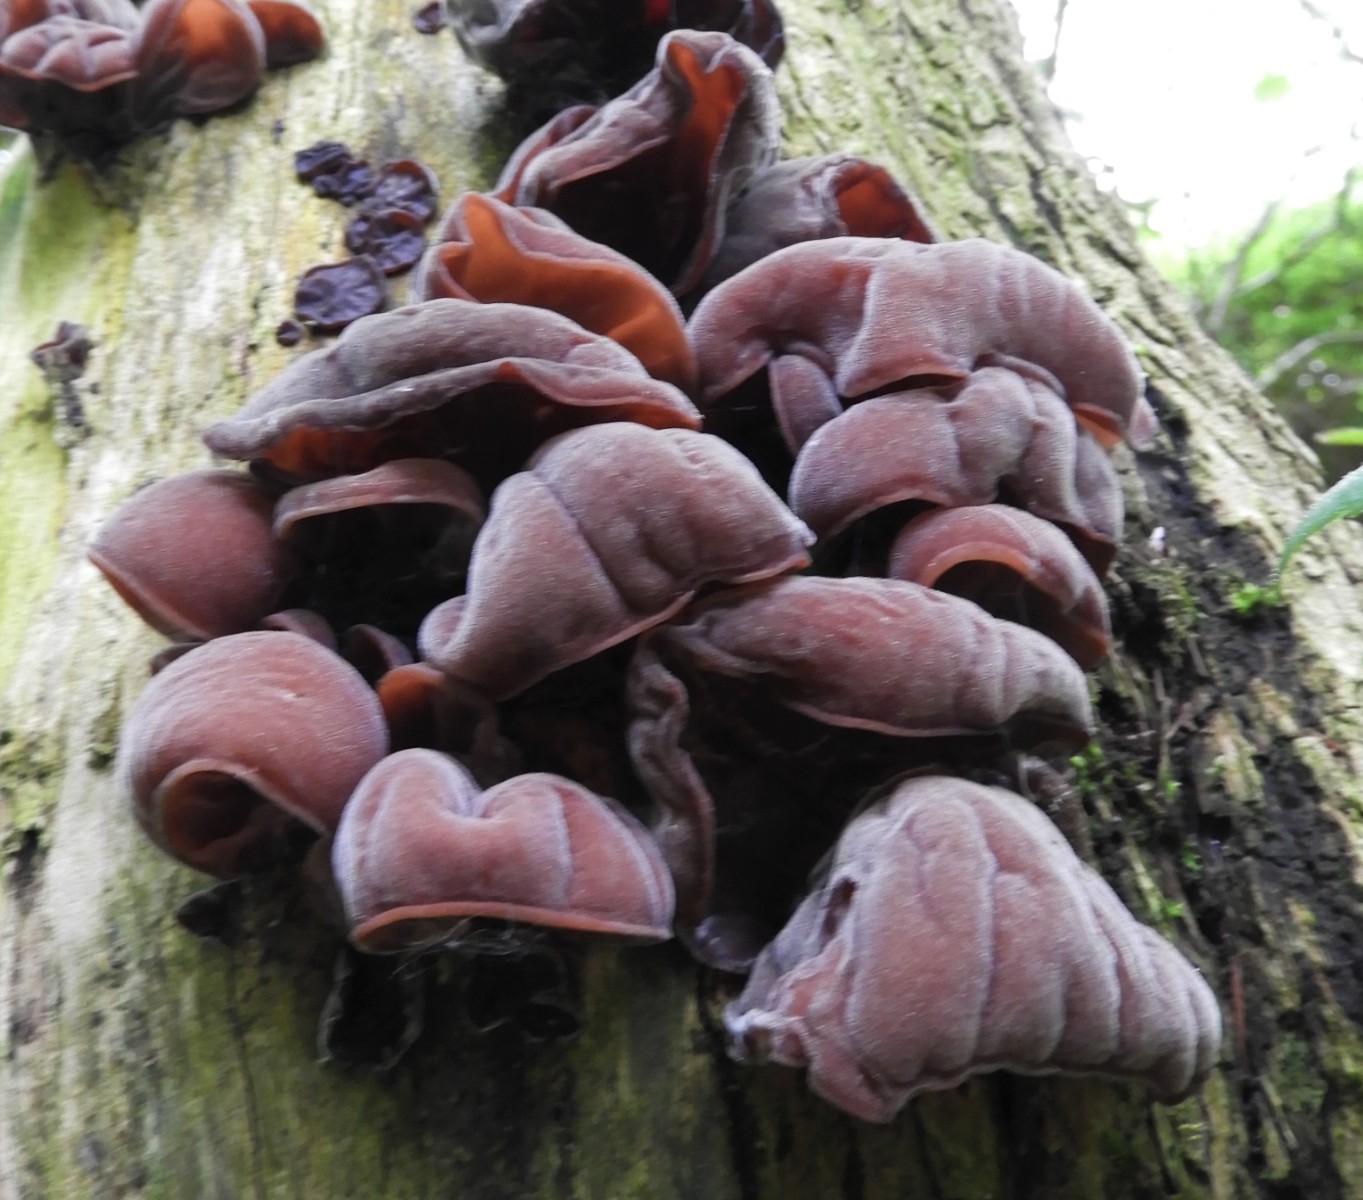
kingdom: Fungi
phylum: Basidiomycota
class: Agaricomycetes
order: Auriculariales
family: Auriculariaceae
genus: Auricularia
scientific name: Auricularia auricula-judae
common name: almindelig judasøre
